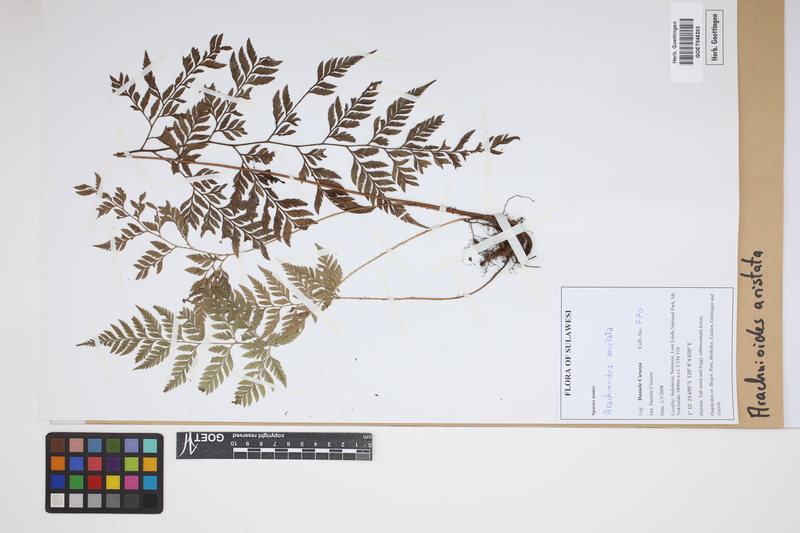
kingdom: Plantae
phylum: Tracheophyta
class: Polypodiopsida
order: Polypodiales
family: Dryopteridaceae
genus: Arachniodes
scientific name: Arachniodes aristata
